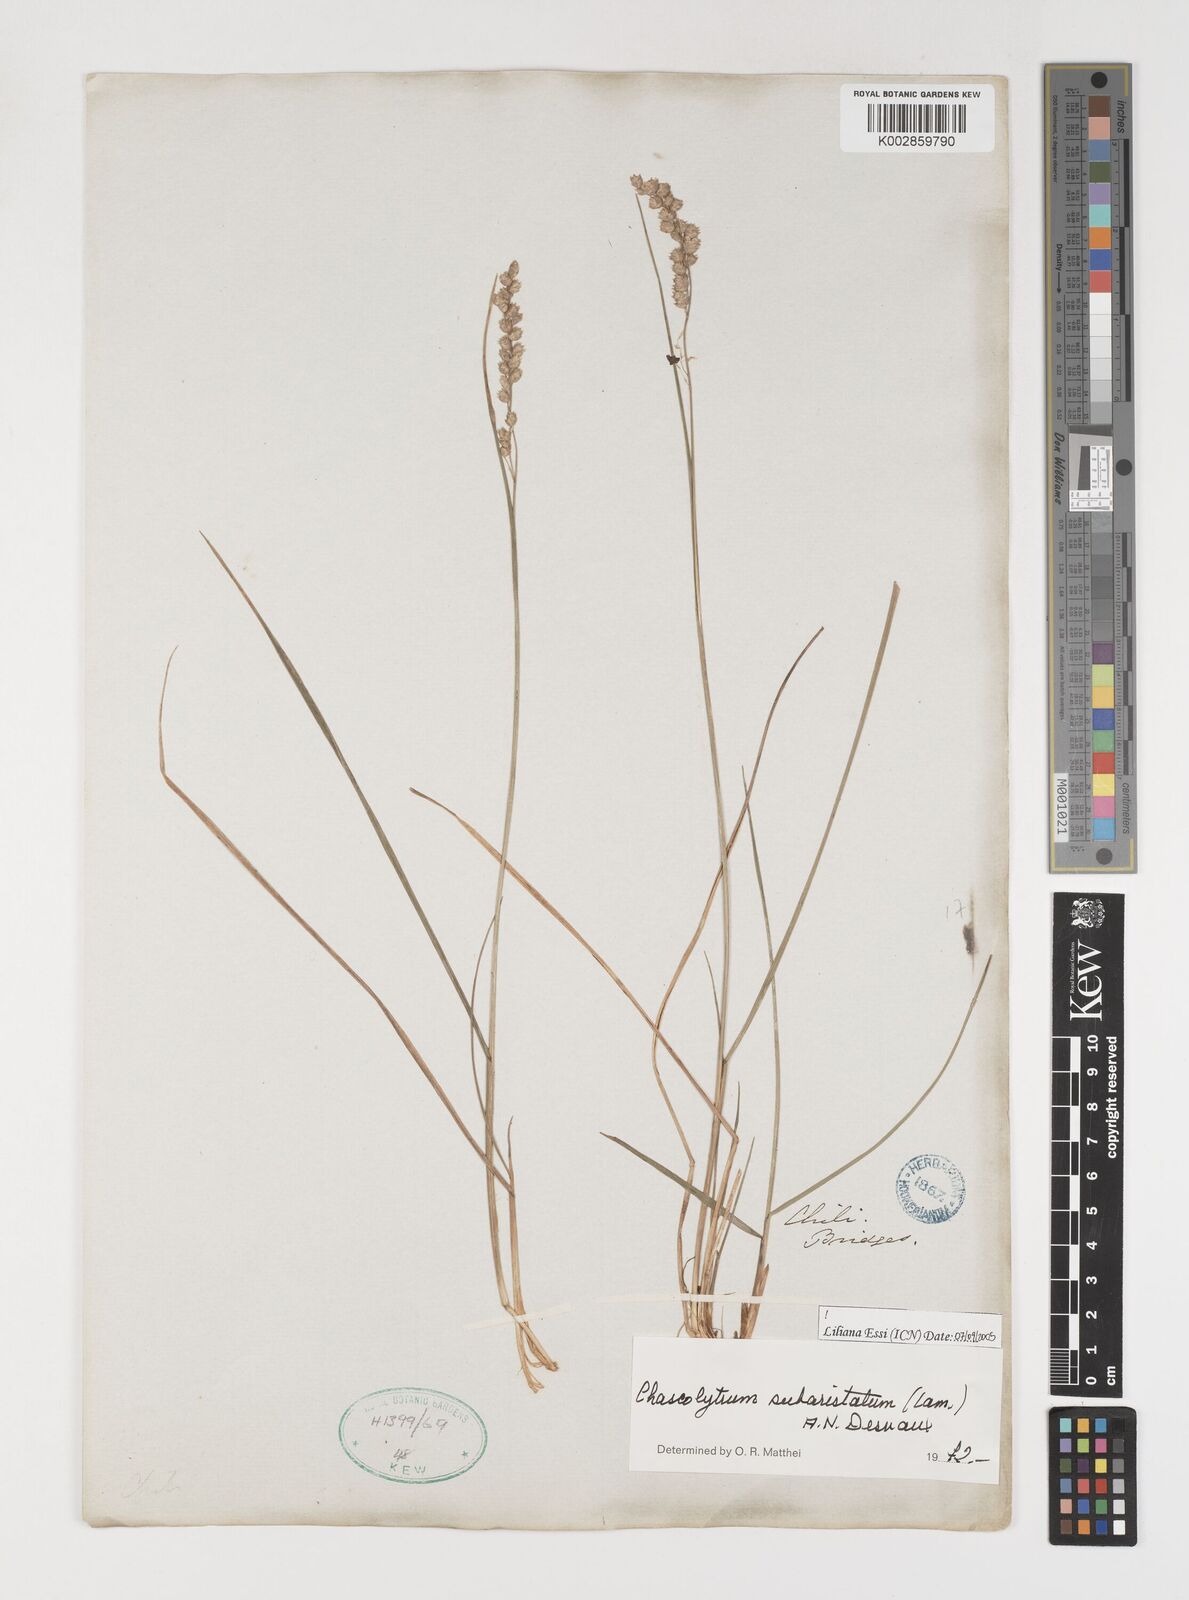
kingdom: Plantae
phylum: Tracheophyta
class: Liliopsida
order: Poales
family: Poaceae
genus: Chascolytrum
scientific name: Chascolytrum subaristatum
